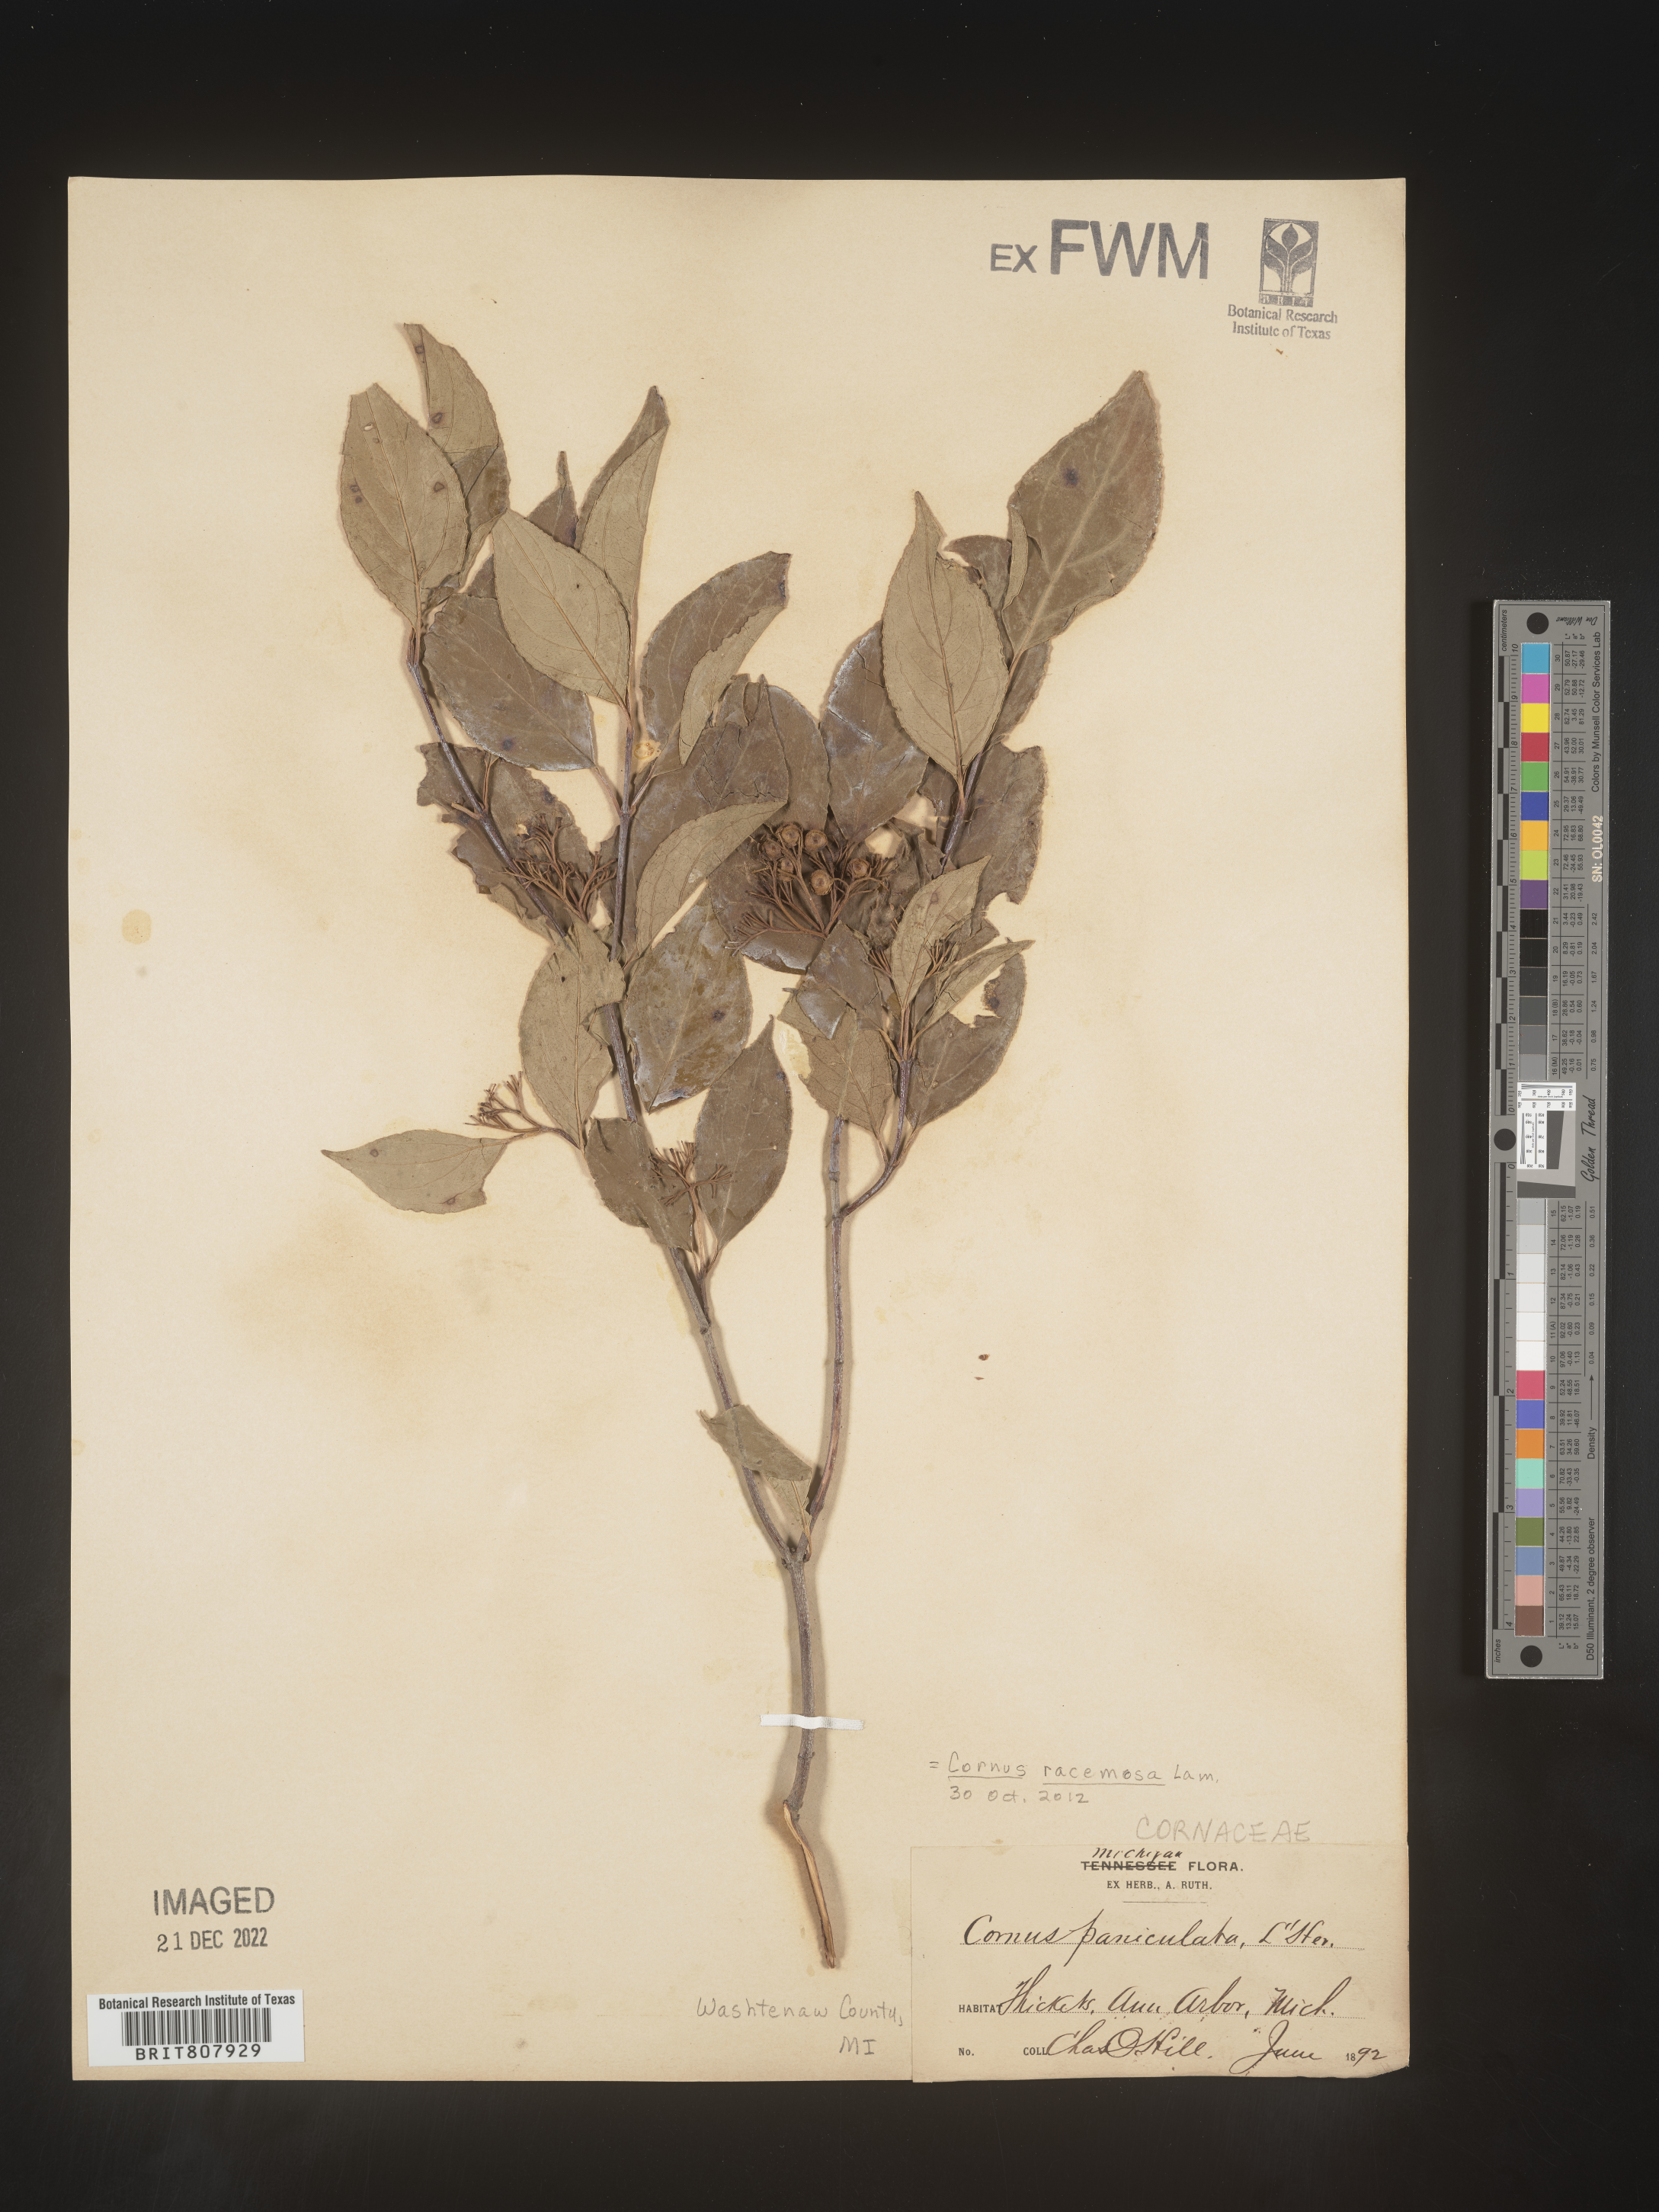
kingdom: Plantae
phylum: Tracheophyta
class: Magnoliopsida
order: Cornales
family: Cornaceae
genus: Cornus
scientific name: Cornus racemosa
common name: Panicled dogwood
